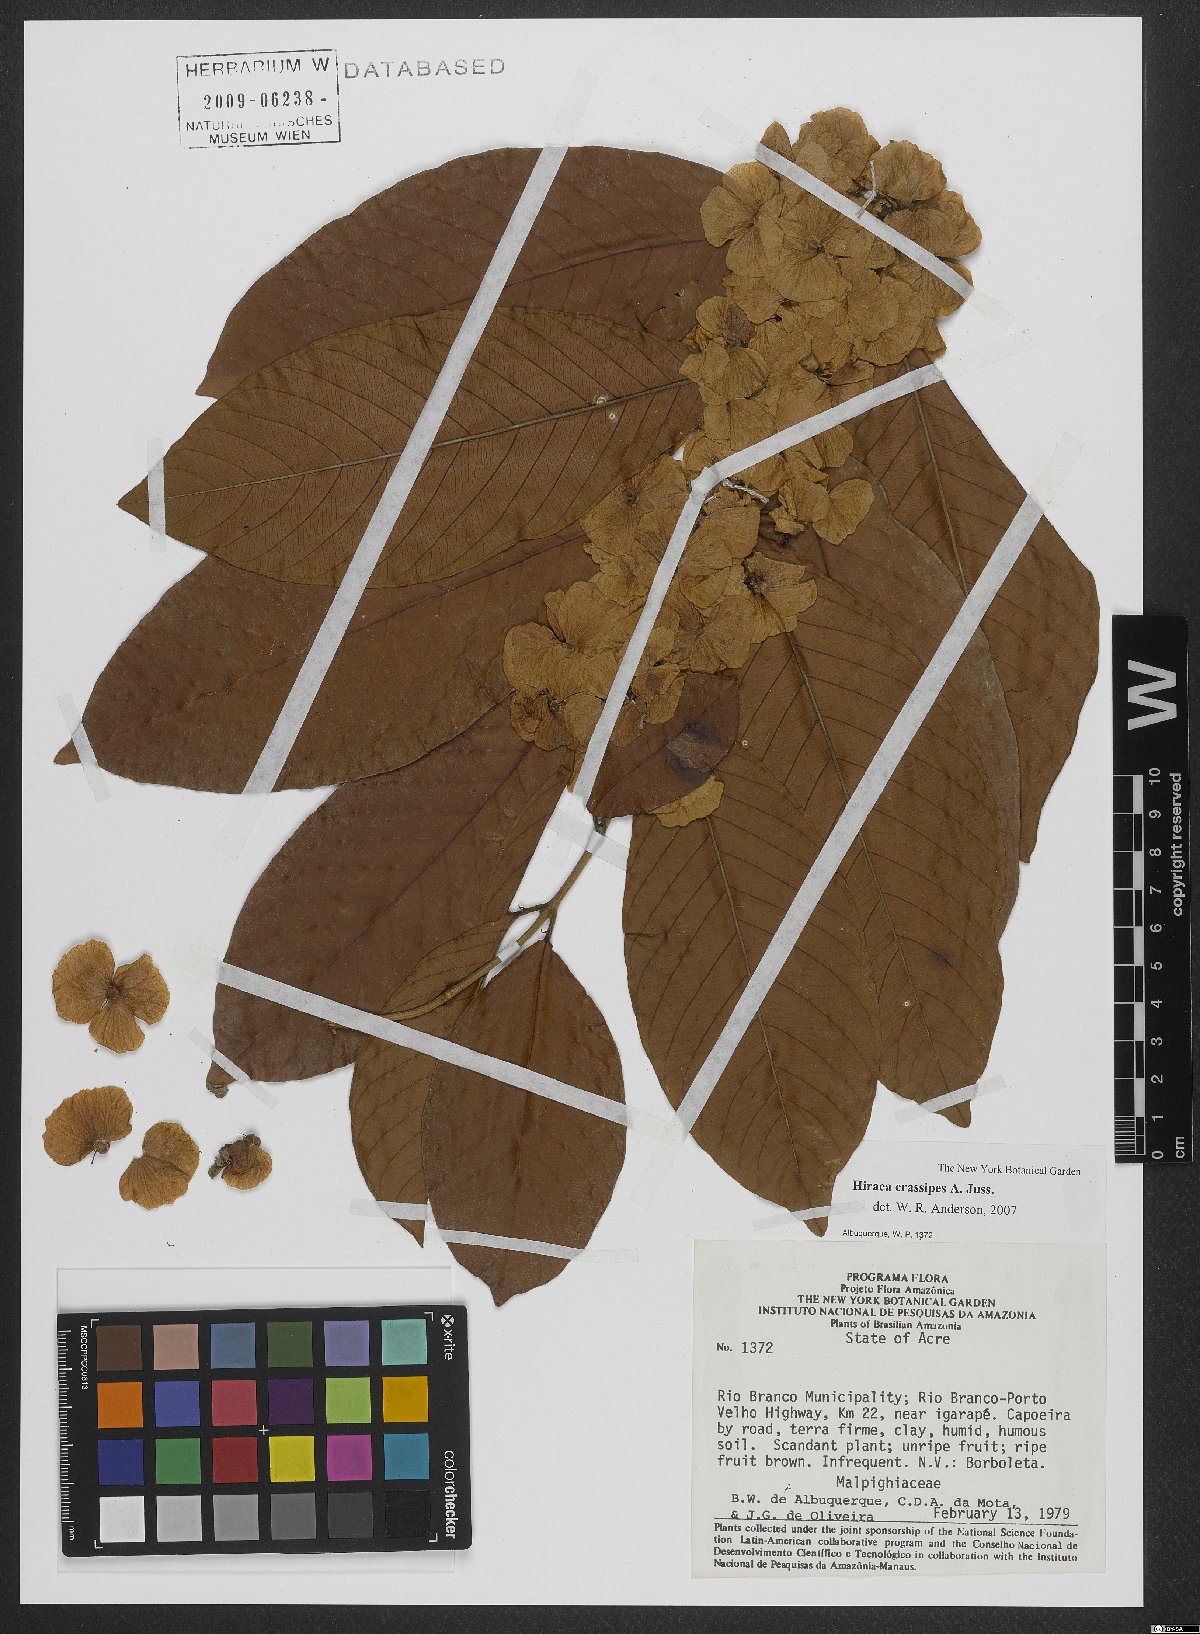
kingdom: Plantae
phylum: Tracheophyta
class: Magnoliopsida
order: Malpighiales
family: Malpighiaceae
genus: Hiraea
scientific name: Hiraea crassipes
